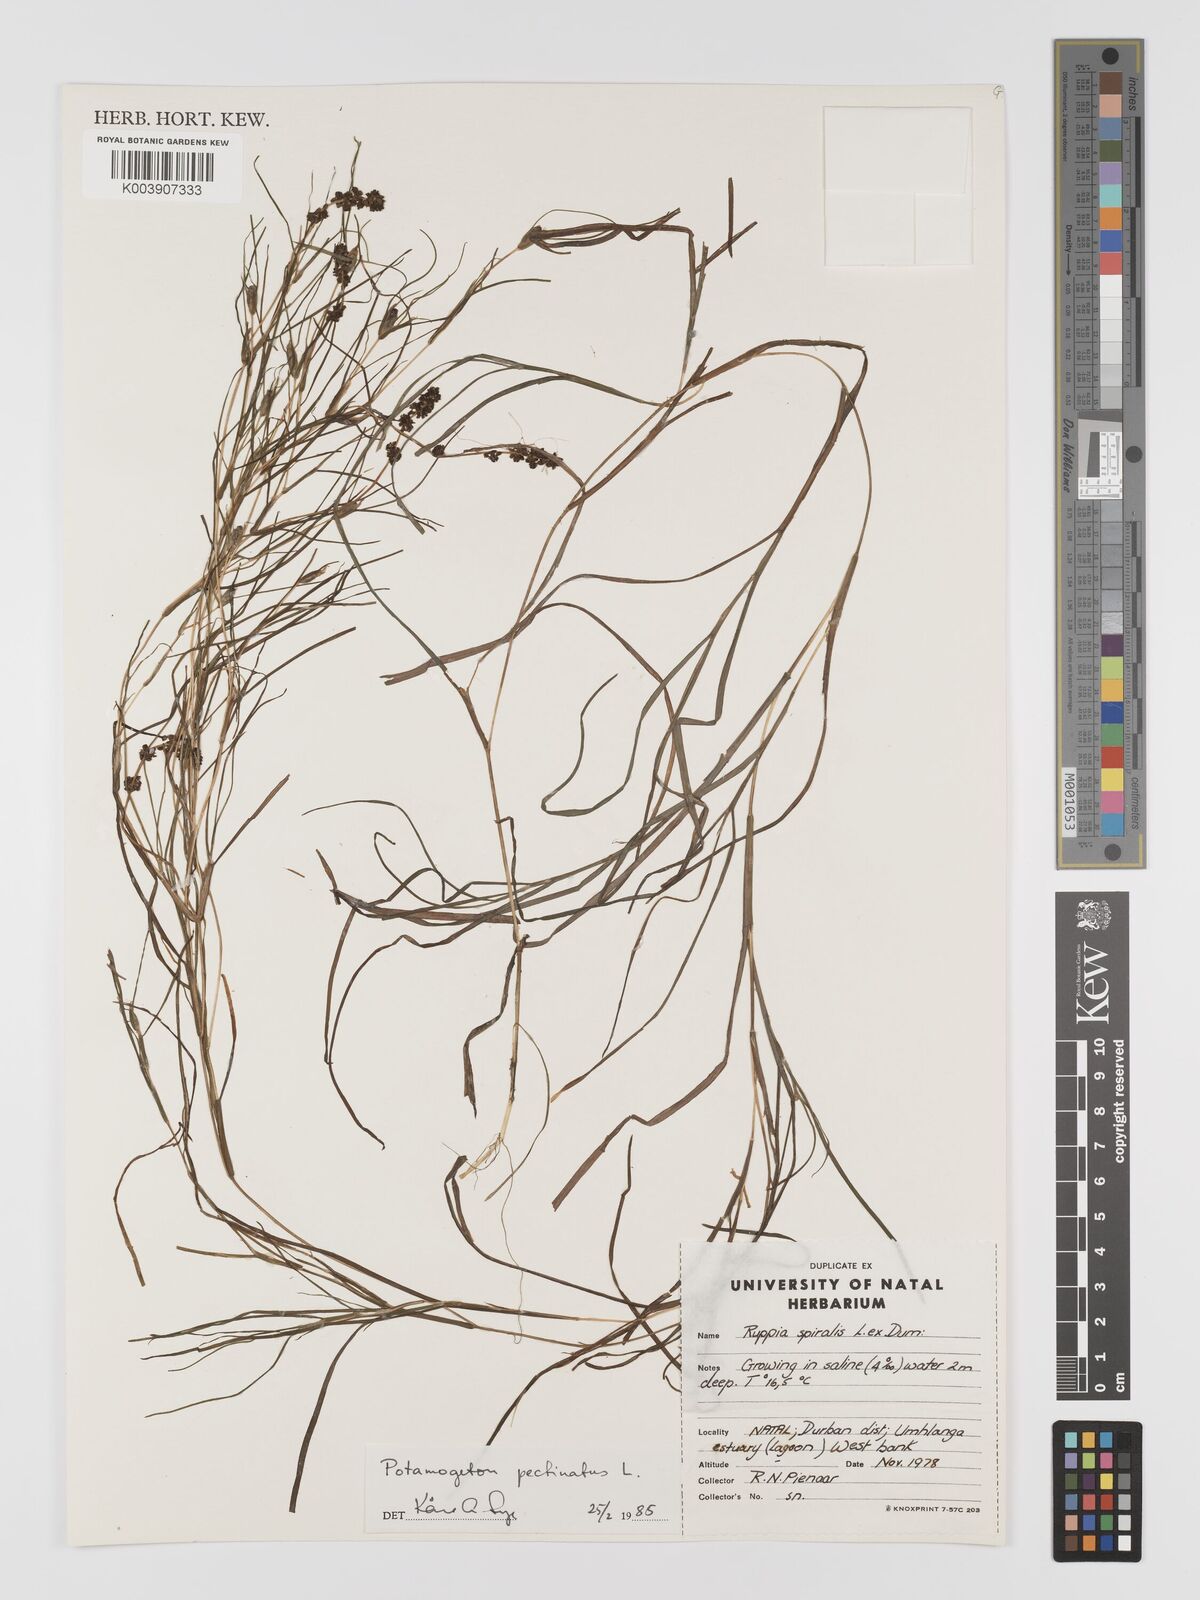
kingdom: Plantae
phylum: Tracheophyta
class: Liliopsida
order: Alismatales
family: Potamogetonaceae
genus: Stuckenia
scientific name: Stuckenia pectinata
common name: Sago pondweed
